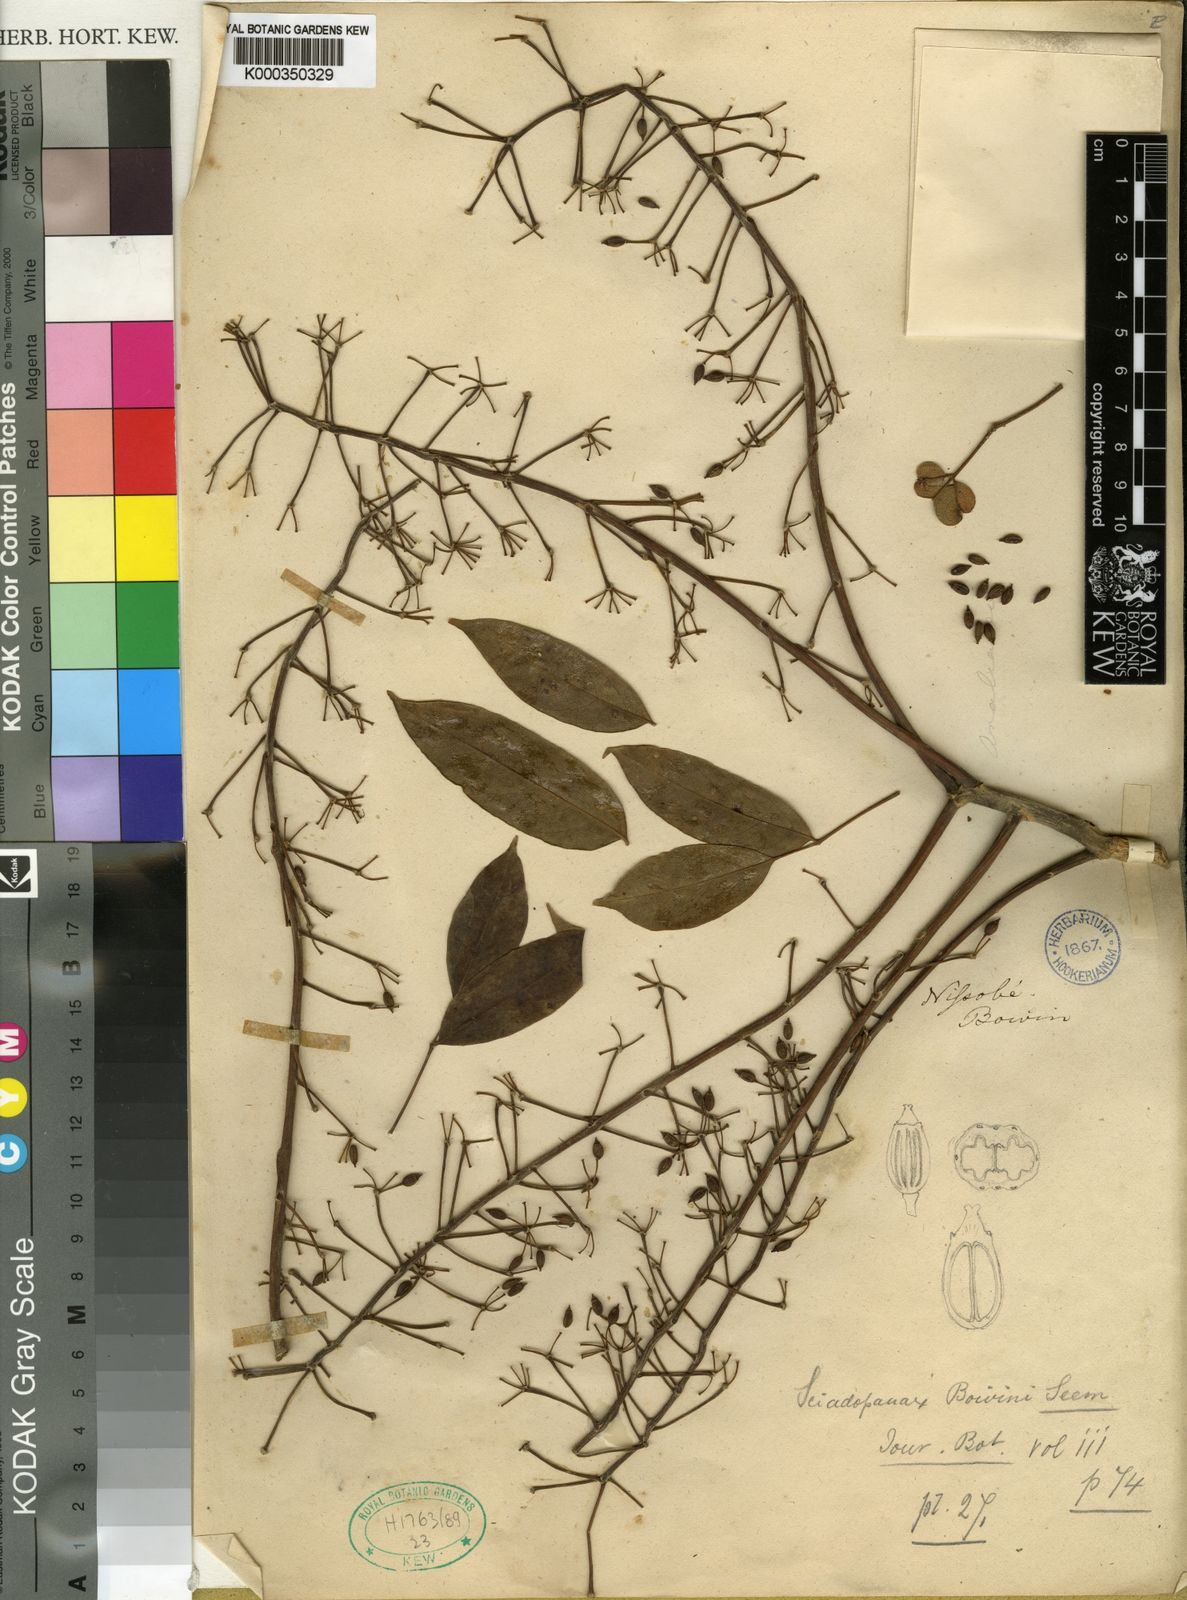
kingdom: Plantae
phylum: Tracheophyta
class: Magnoliopsida
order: Apiales
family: Araliaceae
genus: Polyscias
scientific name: Polyscias boivinii
